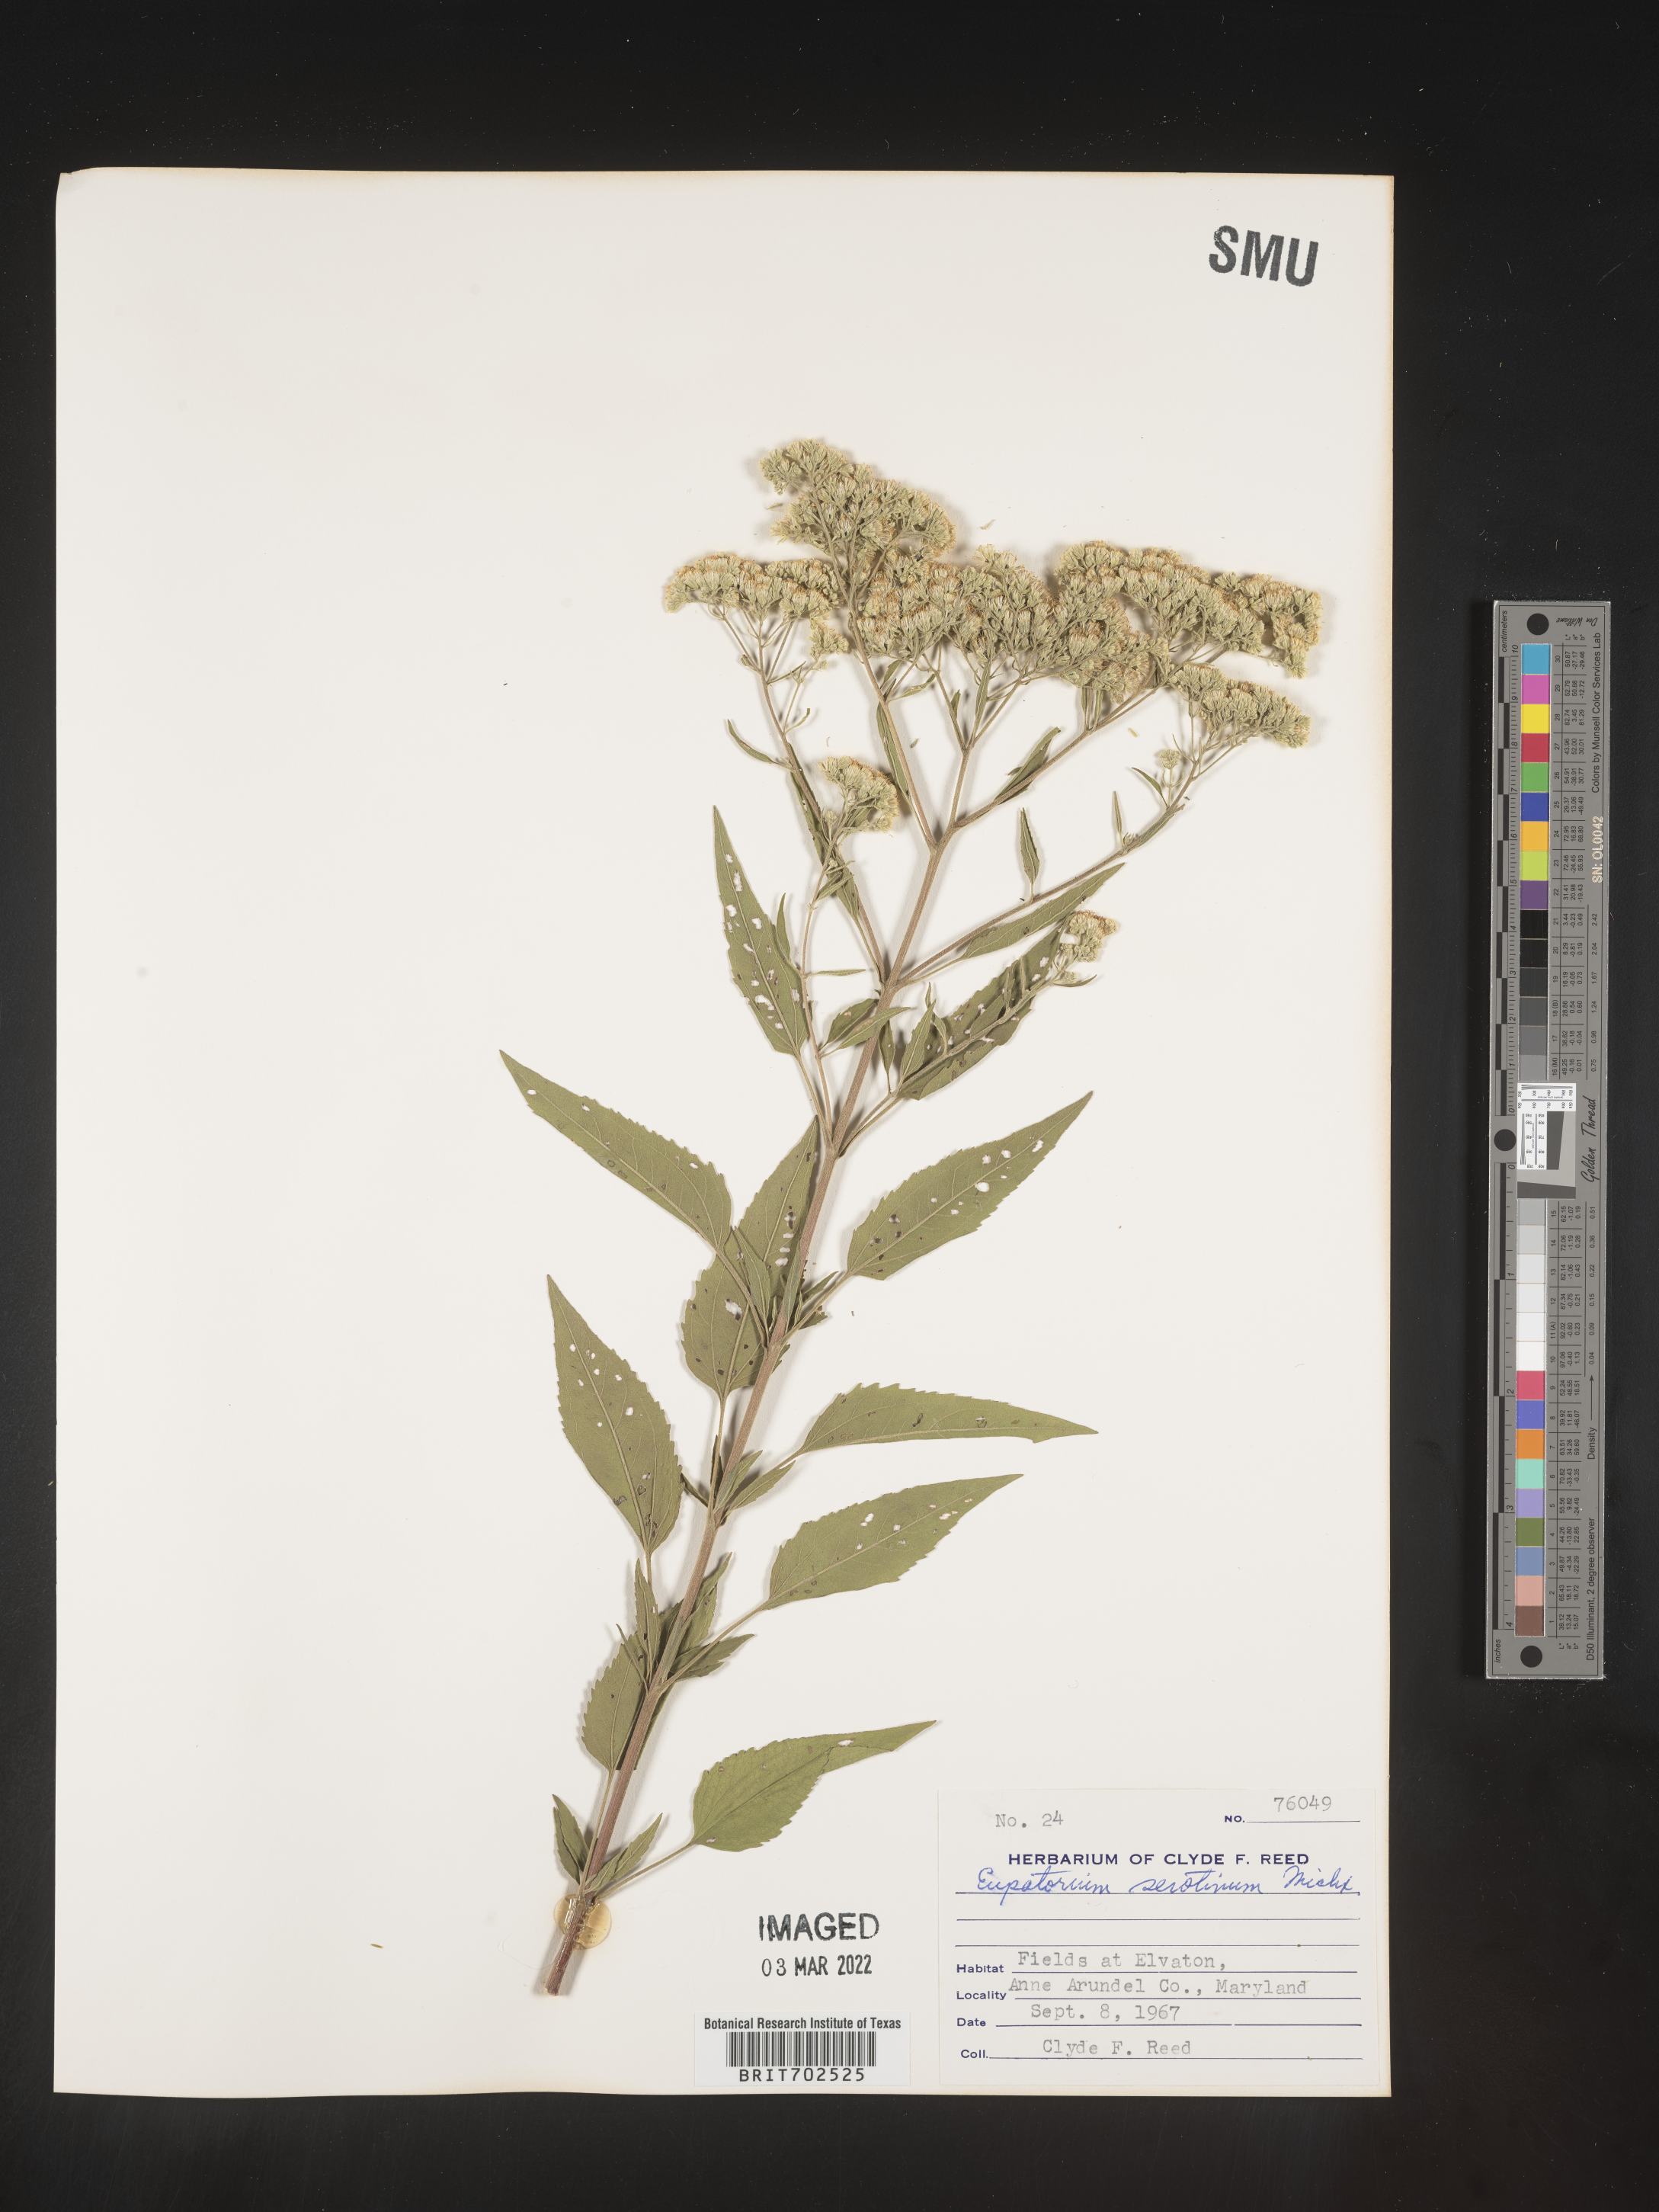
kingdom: Plantae
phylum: Tracheophyta
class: Magnoliopsida
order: Asterales
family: Asteraceae
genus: Eupatorium
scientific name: Eupatorium serotinum
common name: Late boneset
